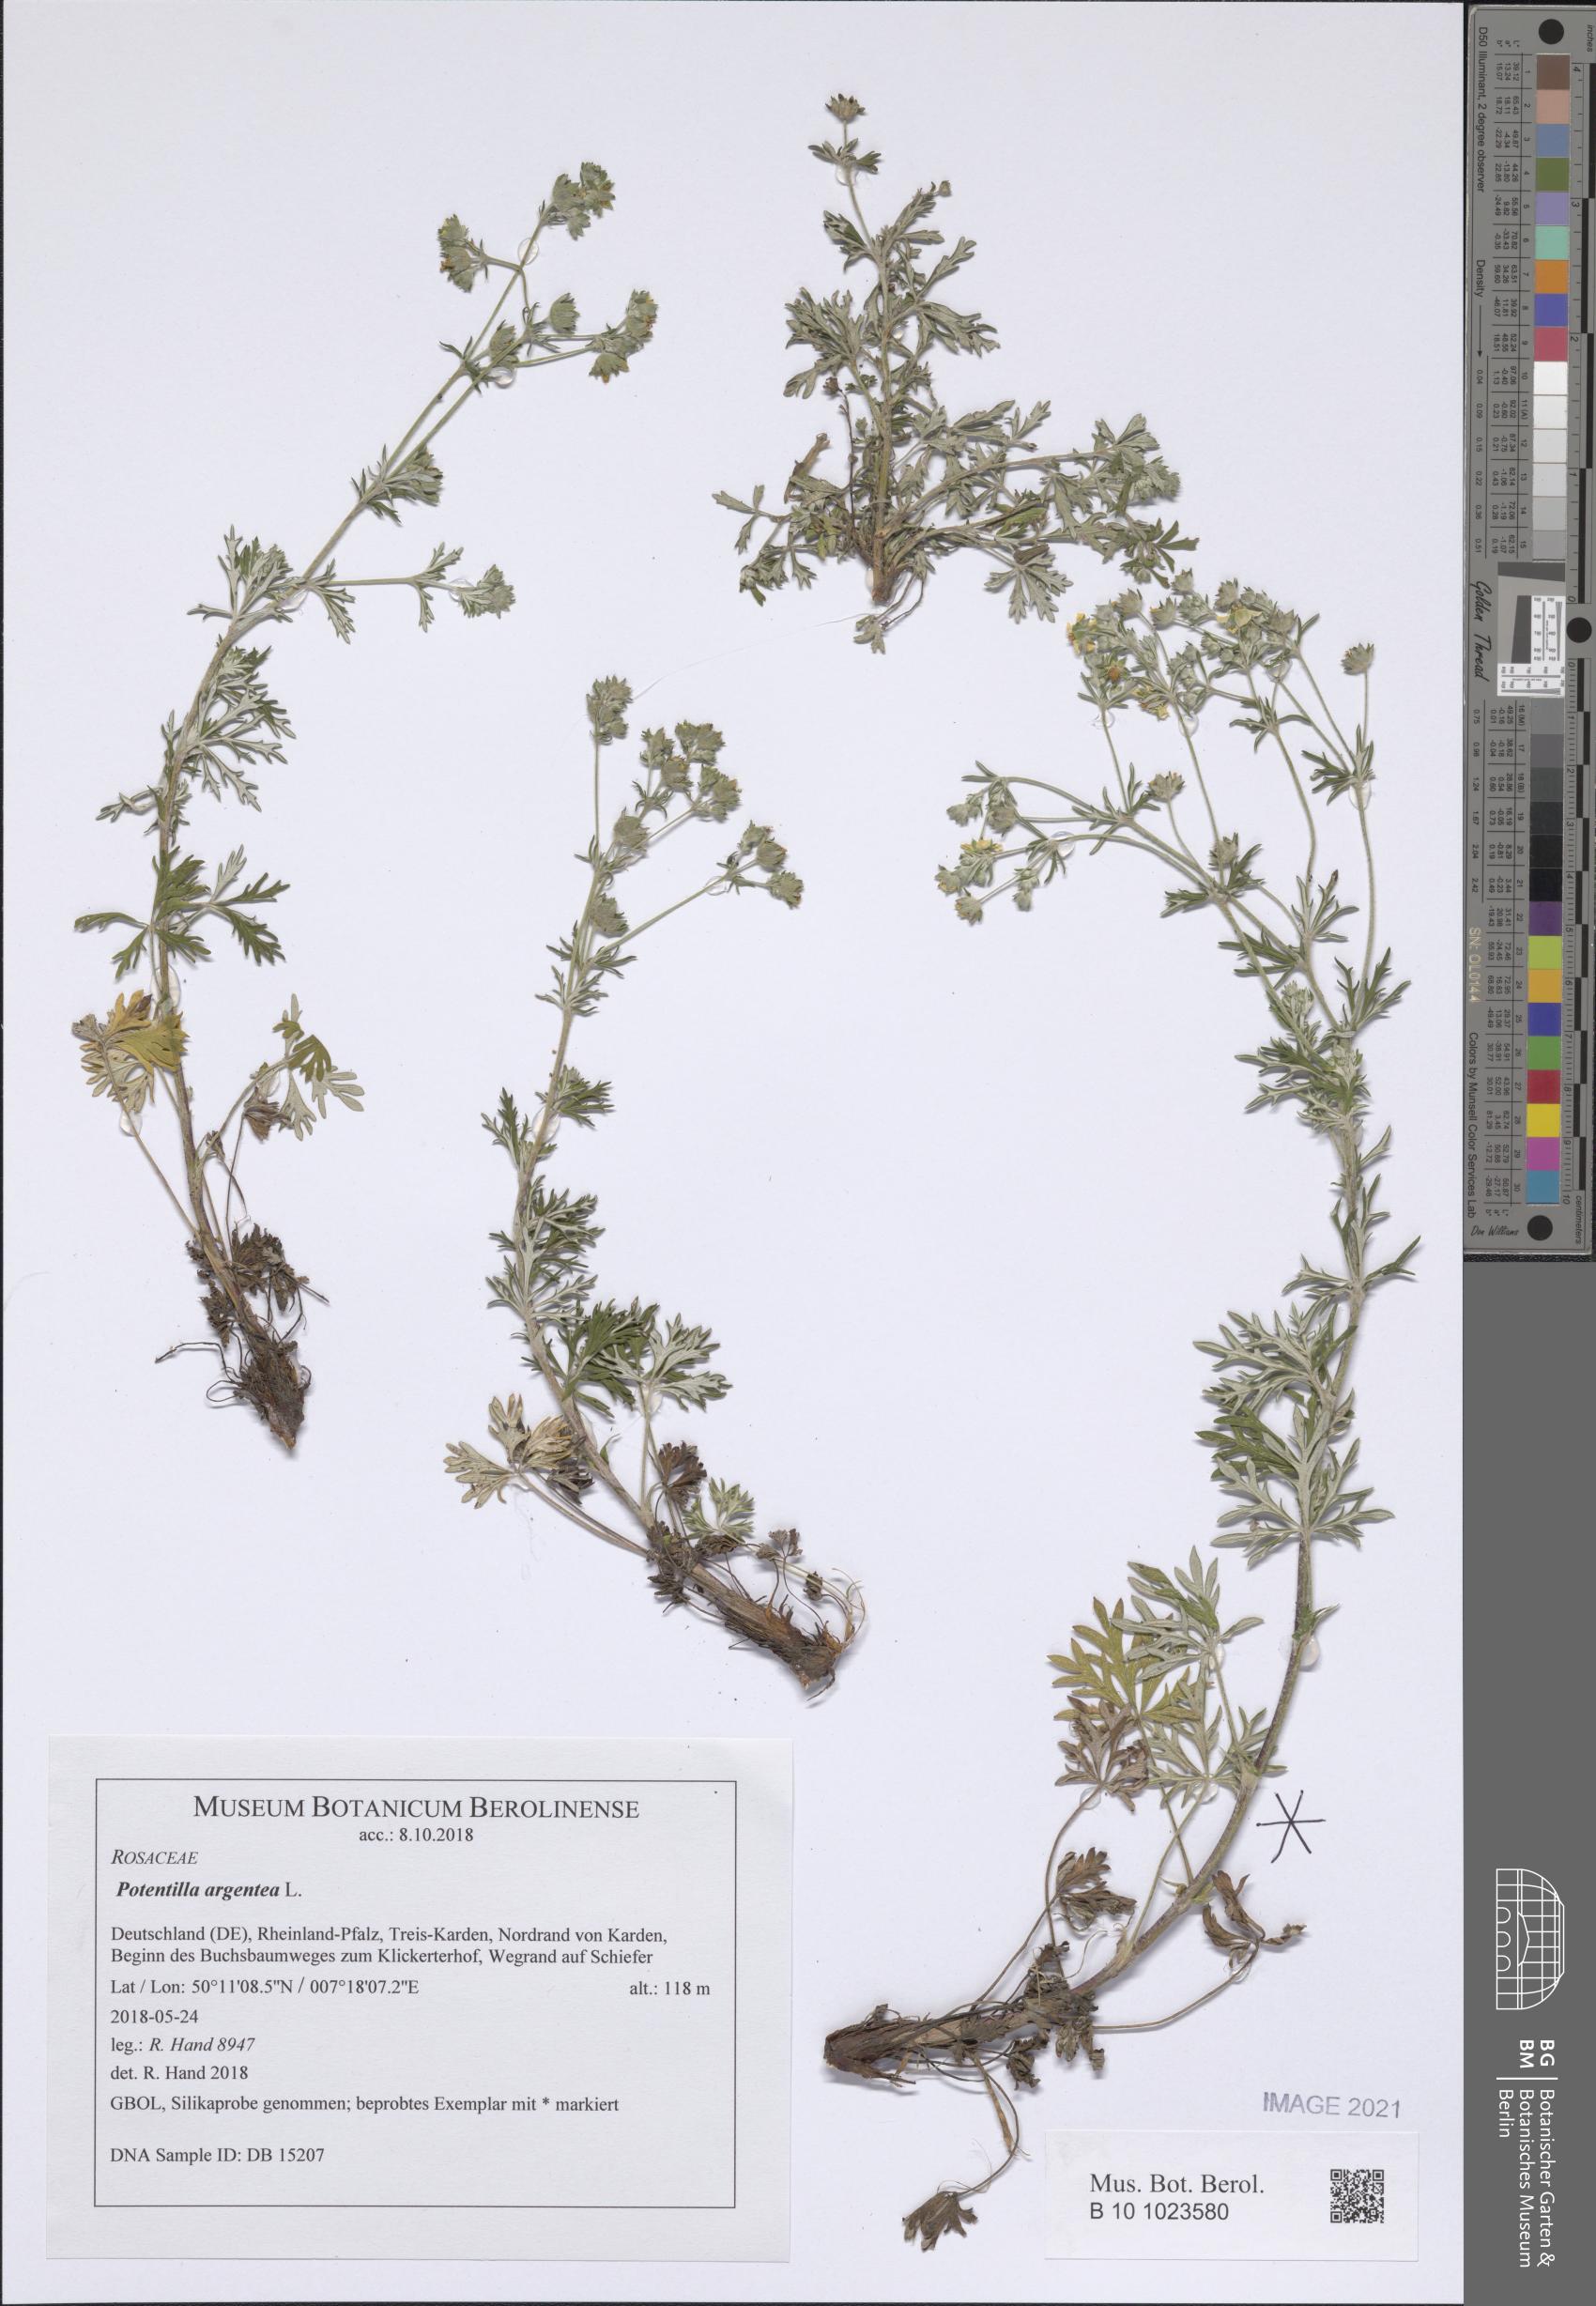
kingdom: Plantae
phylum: Tracheophyta
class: Magnoliopsida
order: Rosales
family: Rosaceae
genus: Potentilla
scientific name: Potentilla argentea
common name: Hoary cinquefoil
